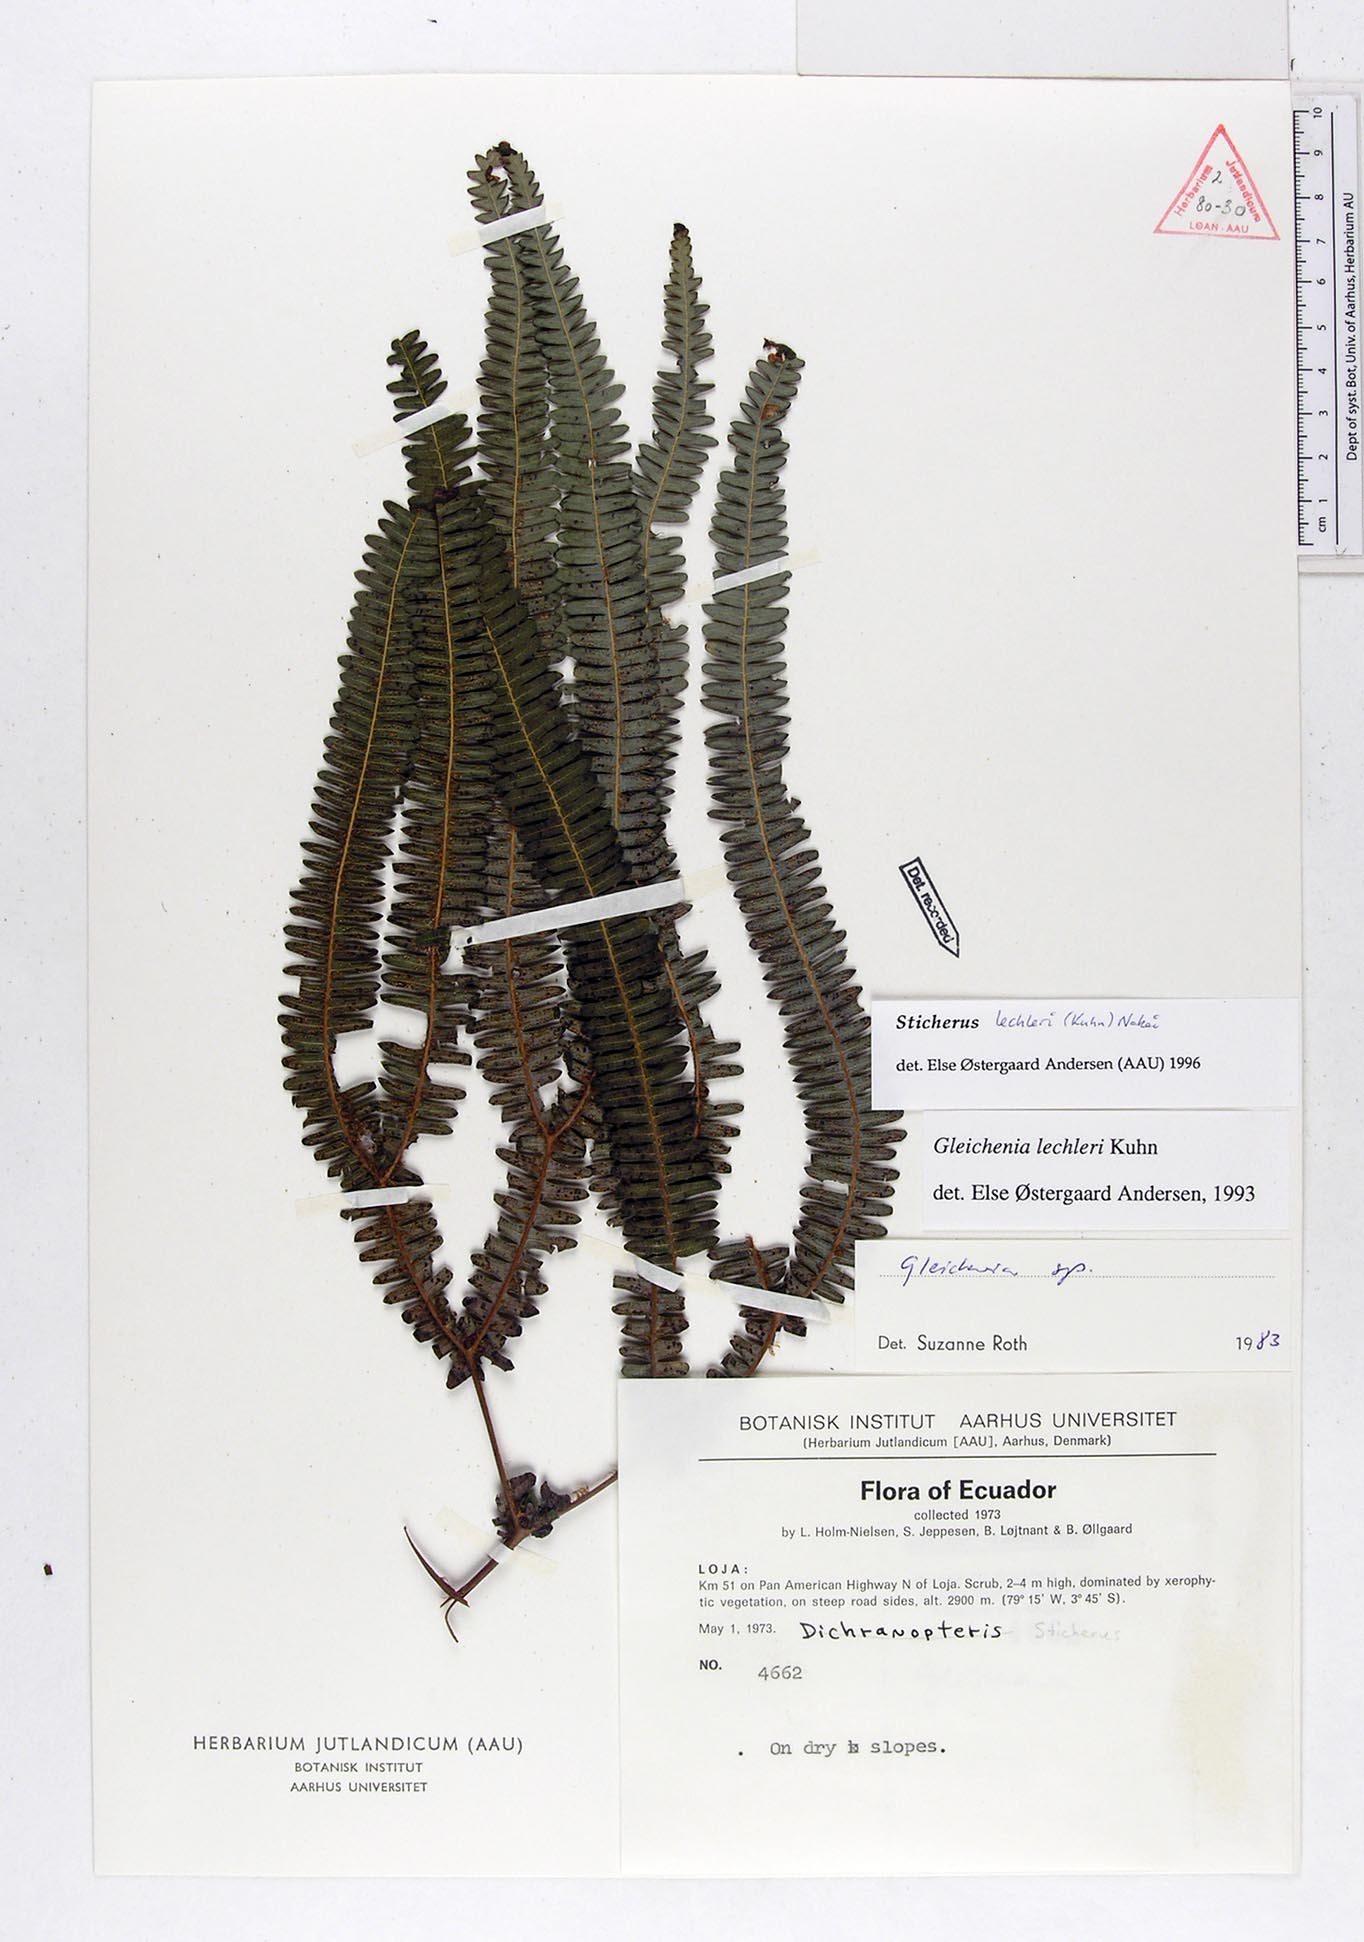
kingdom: Plantae
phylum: Tracheophyta
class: Polypodiopsida
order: Gleicheniales
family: Gleicheniaceae
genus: Sticherus
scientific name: Sticherus lechleri
